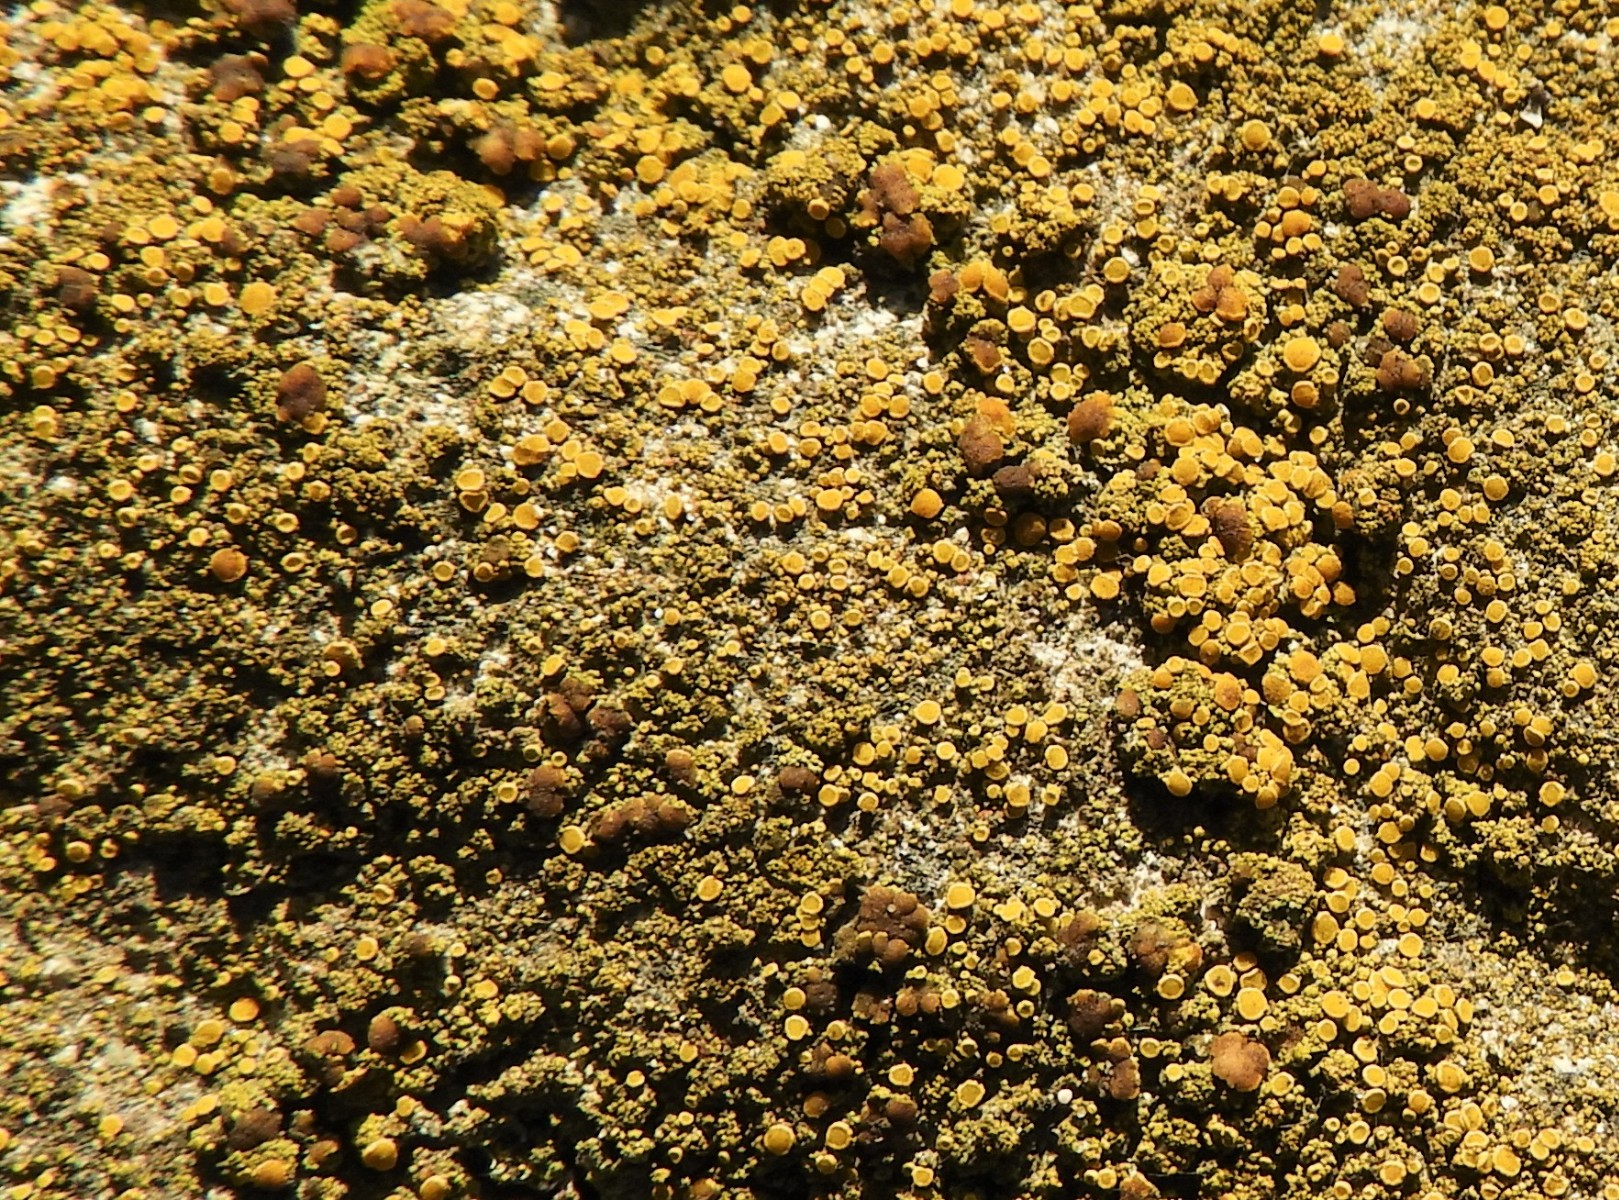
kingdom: Fungi
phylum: Ascomycota
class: Candelariomycetes
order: Candelariales
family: Candelariaceae
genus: Candelariella
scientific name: Candelariella vitellina
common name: almindelig æggeblommelav
